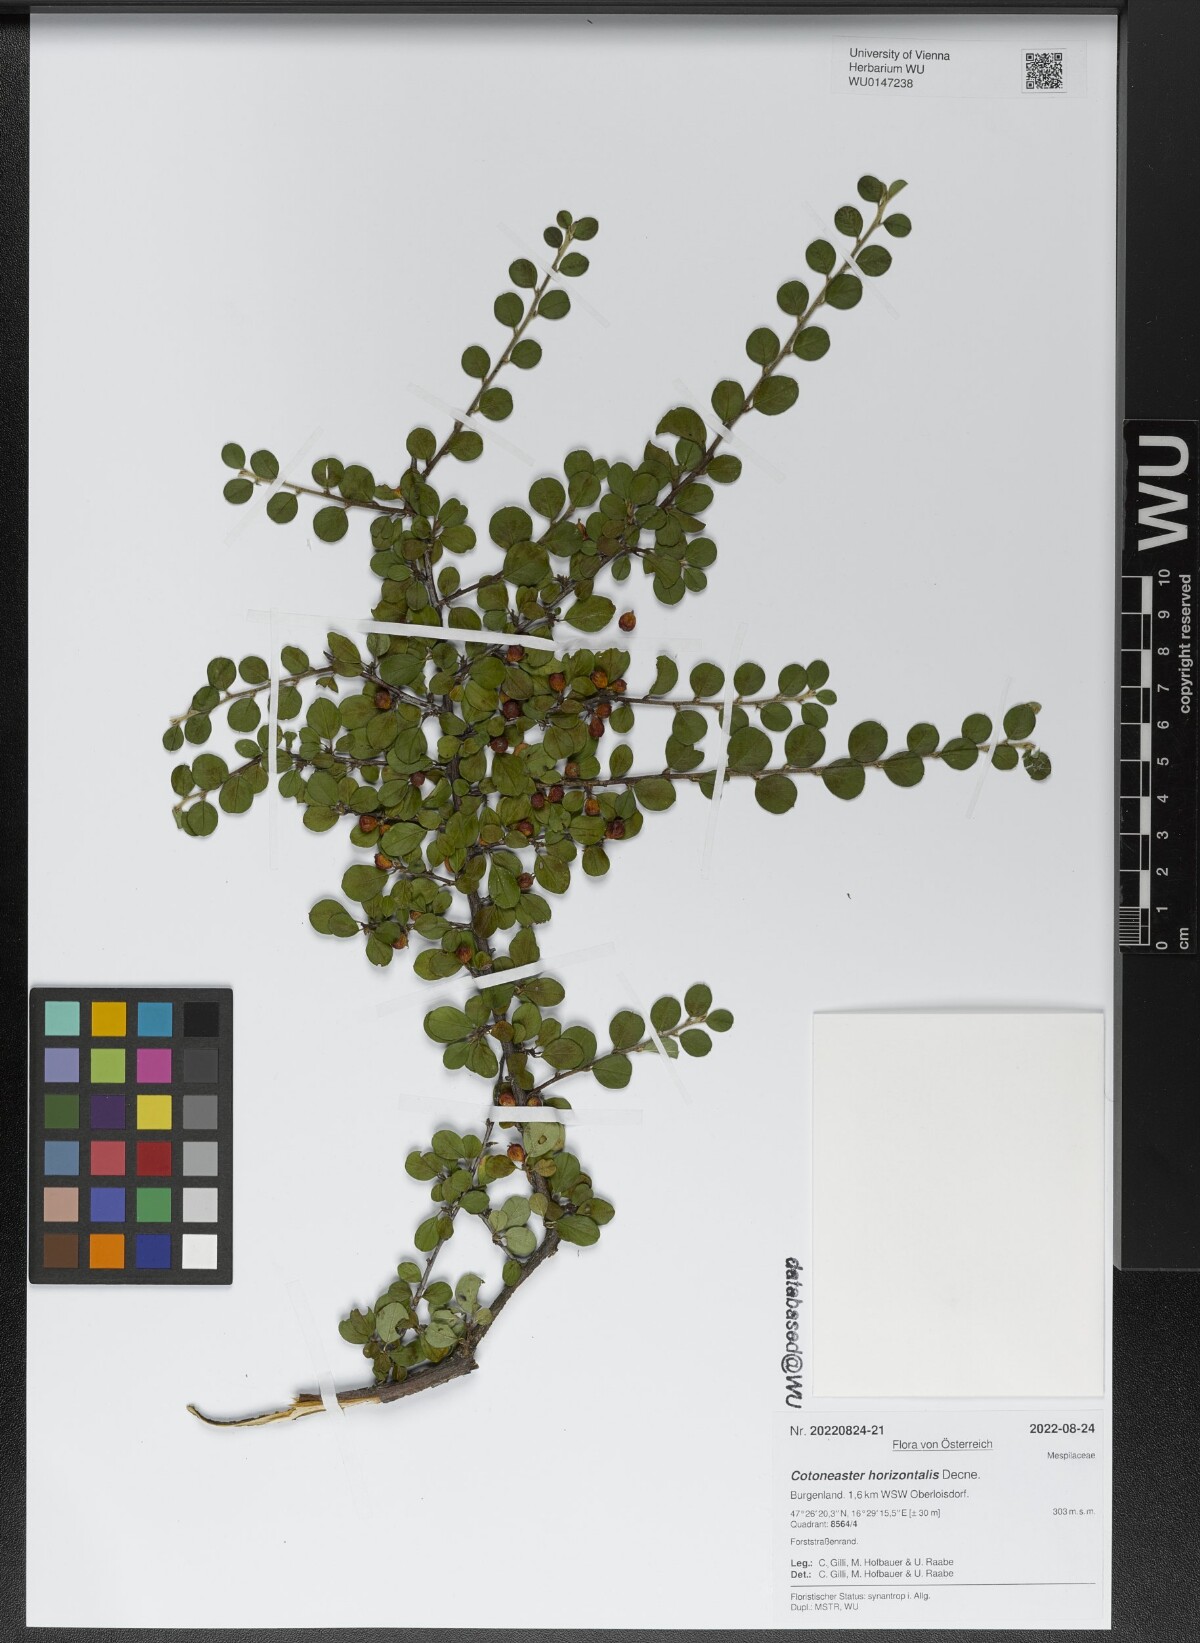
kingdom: Plantae
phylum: Tracheophyta
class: Magnoliopsida
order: Rosales
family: Rosaceae
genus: Cotoneaster
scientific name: Cotoneaster horizontalis
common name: Wall cotoneaster
